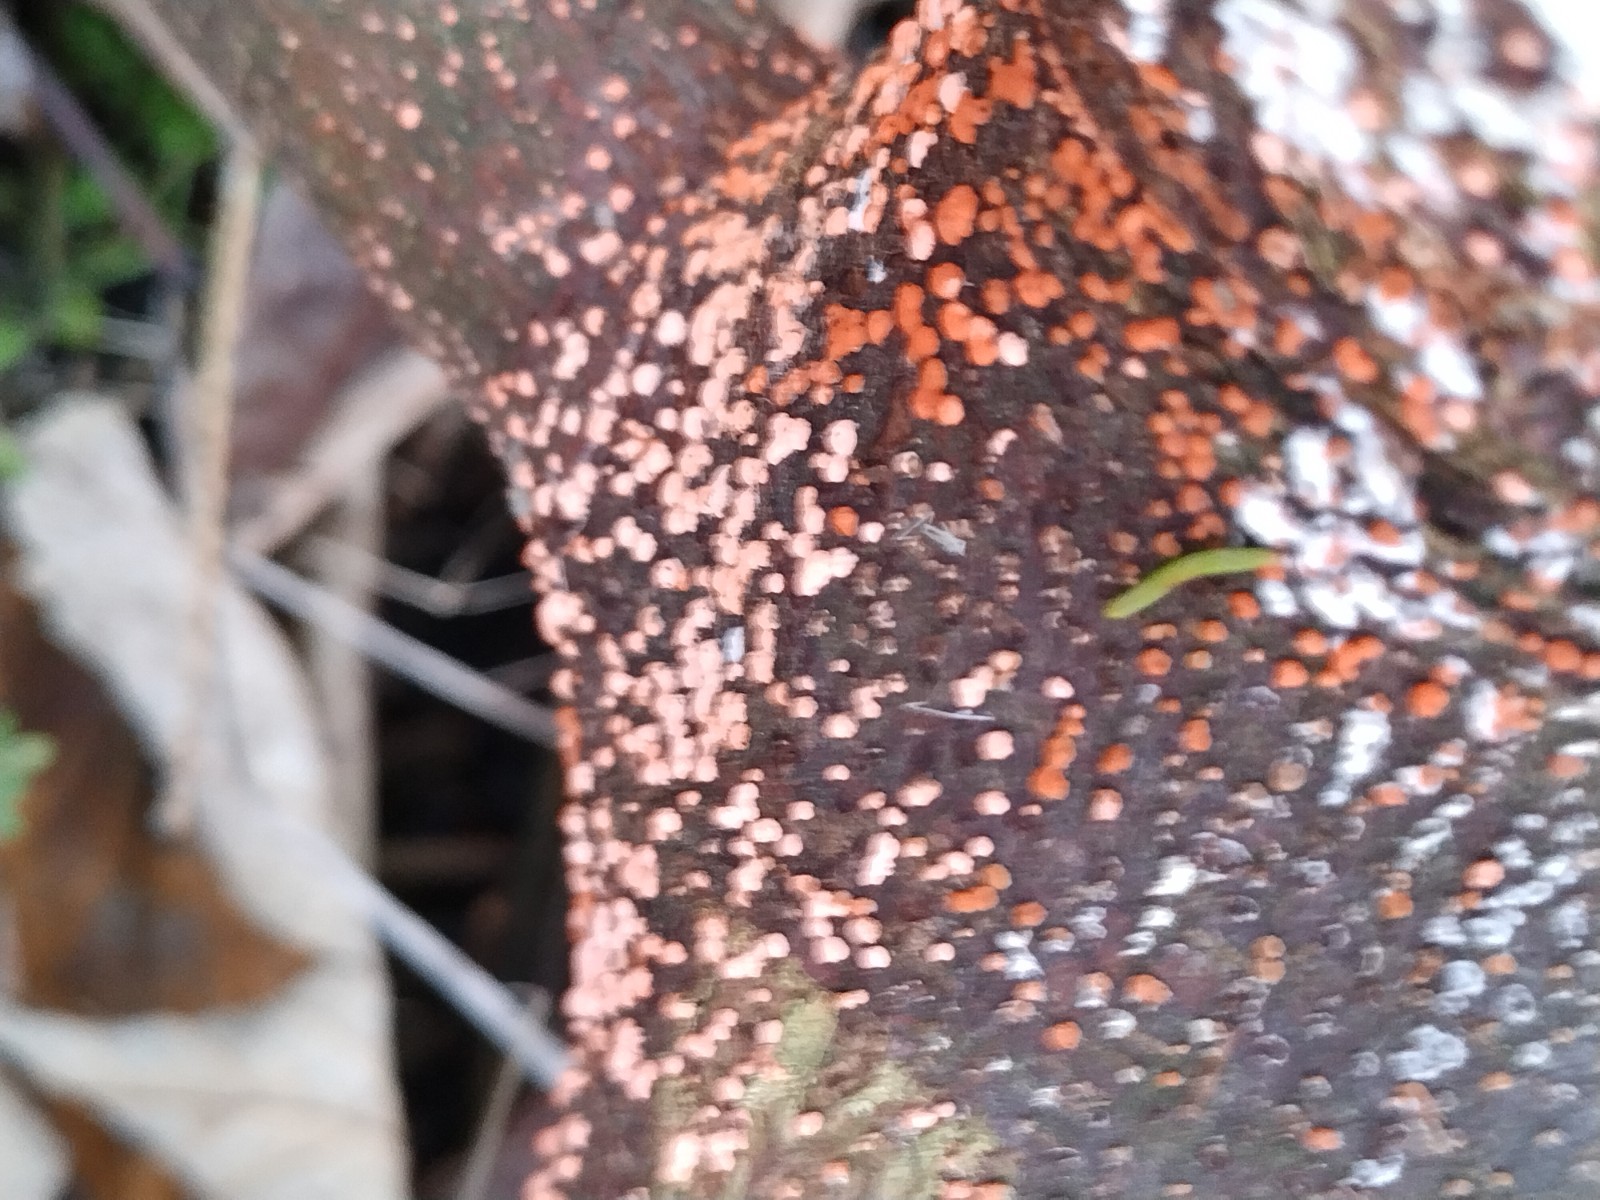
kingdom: Fungi
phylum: Ascomycota
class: Sordariomycetes
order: Hypocreales
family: Nectriaceae
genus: Nectria
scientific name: Nectria cinnabarina
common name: almindelig cinnobersvamp
